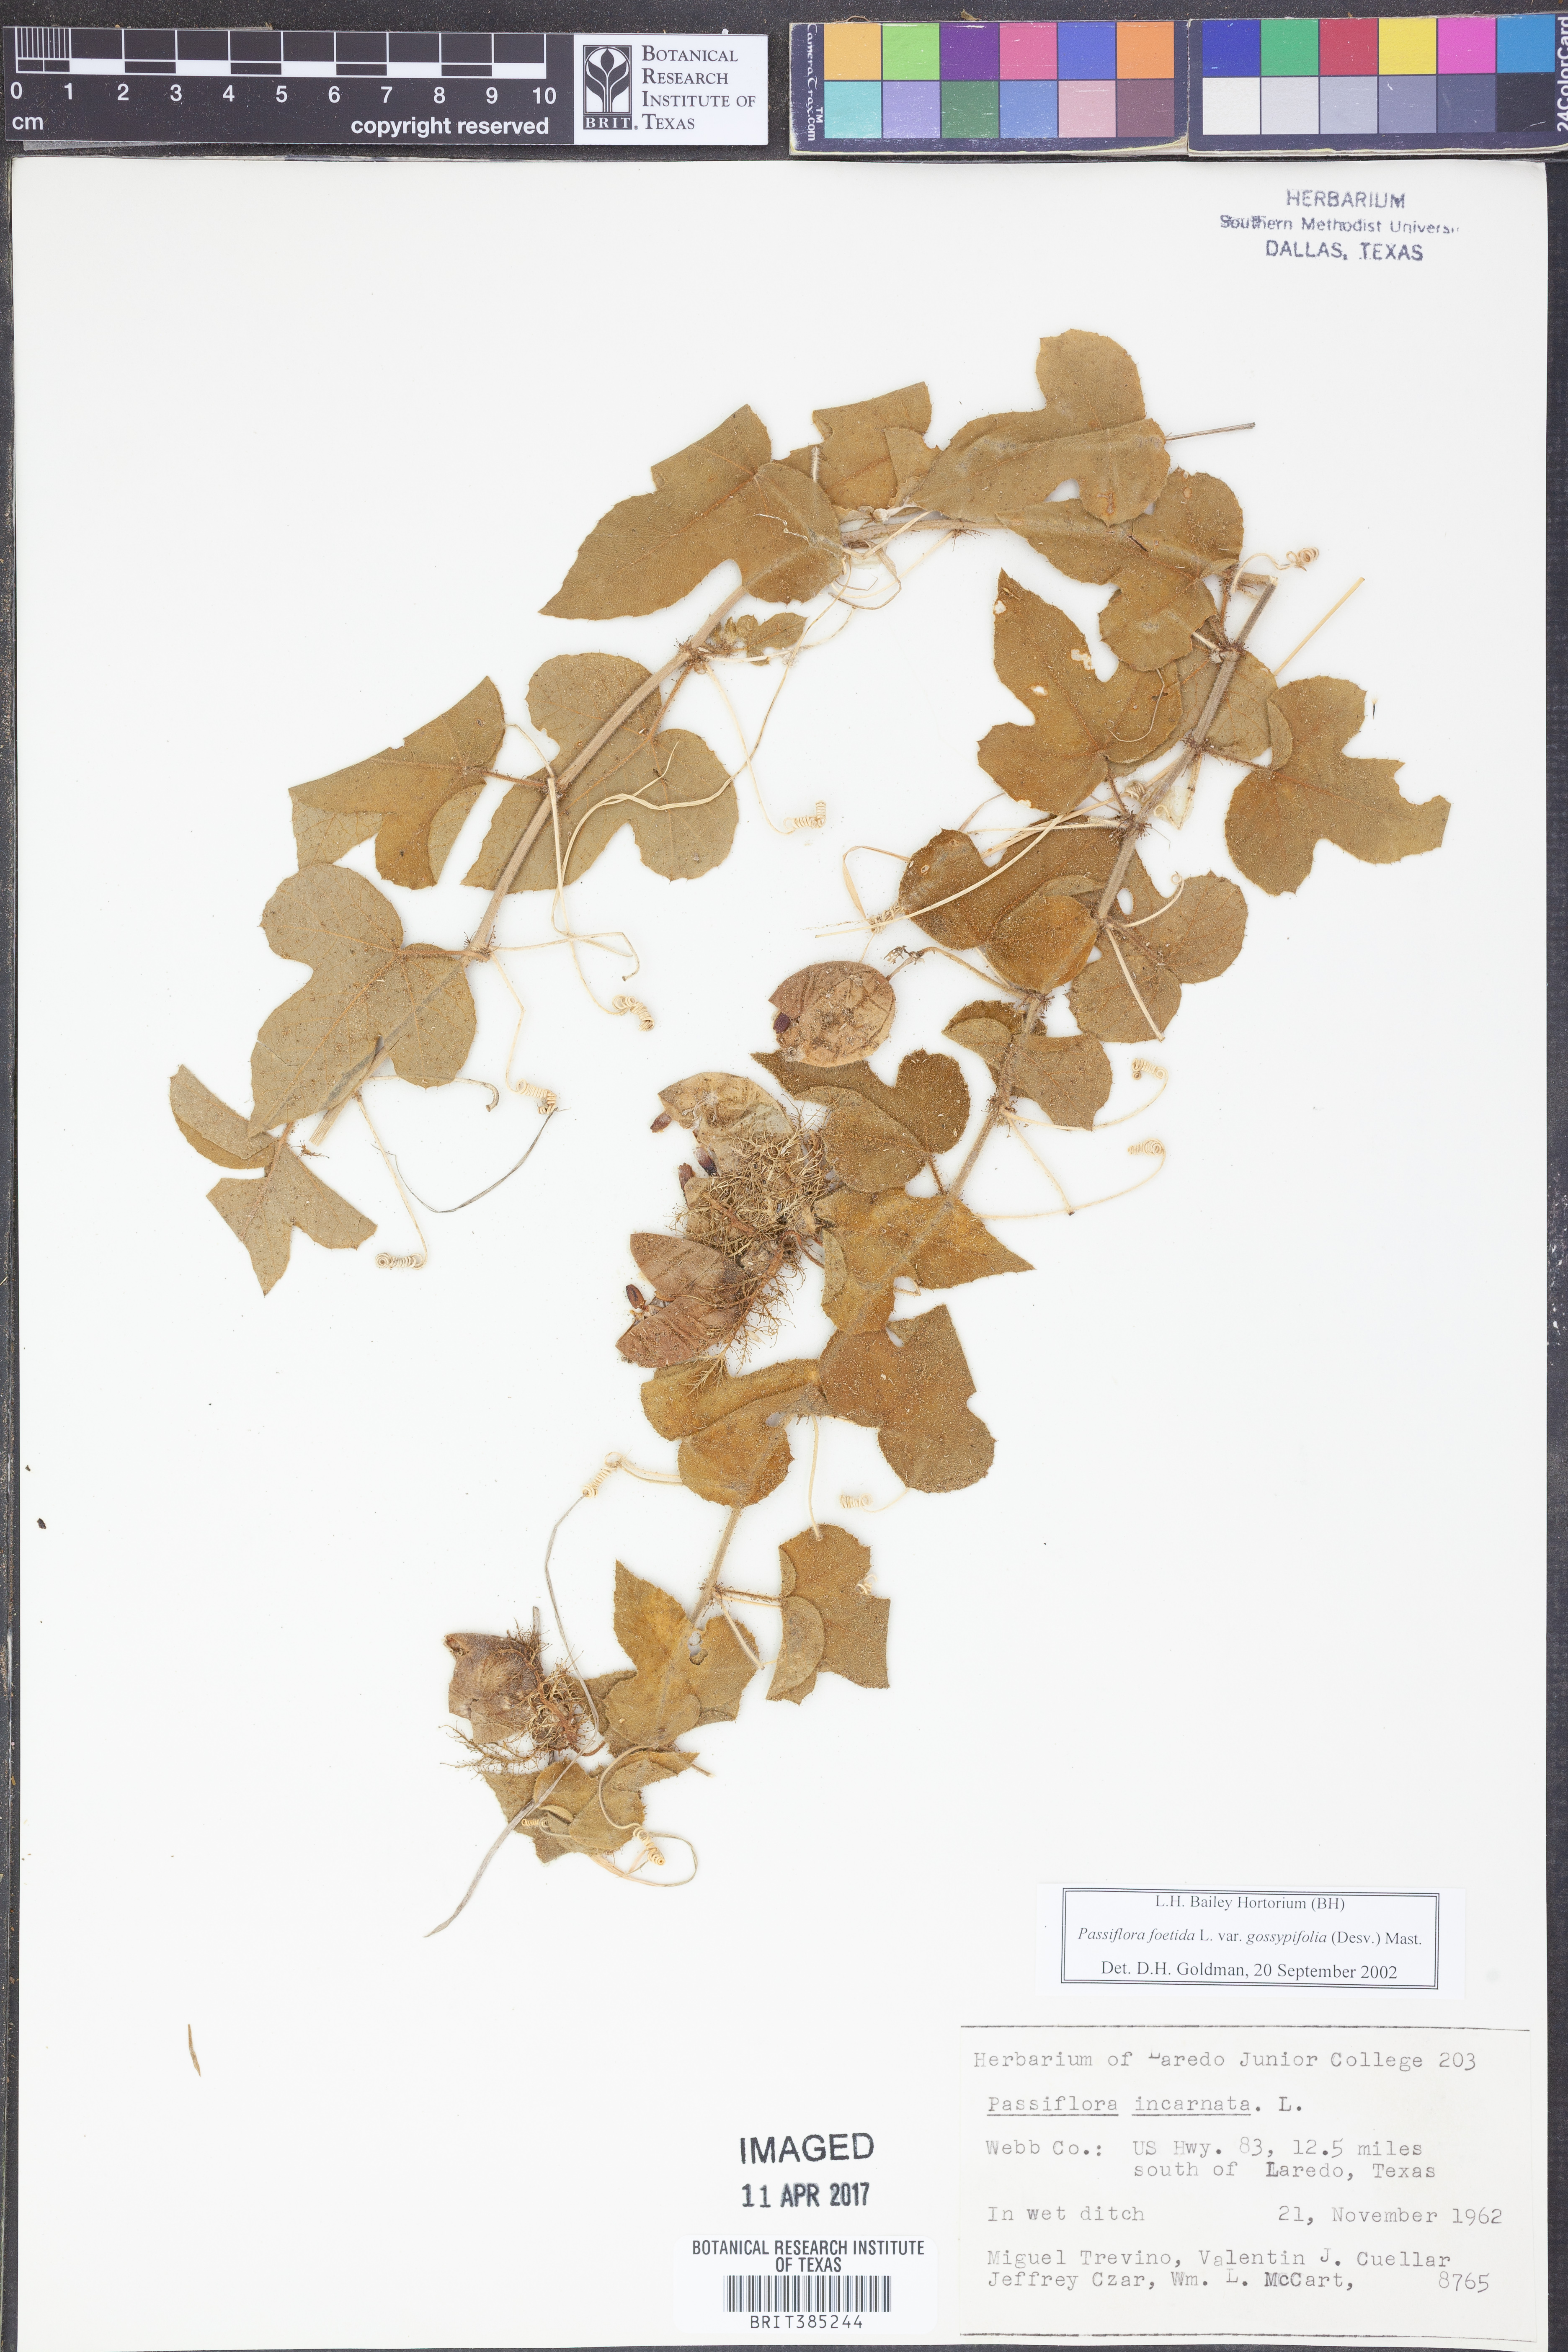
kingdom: Plantae
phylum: Tracheophyta
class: Magnoliopsida
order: Malpighiales
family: Passifloraceae
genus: Passiflora
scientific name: Passiflora foetida
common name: Fetid passionflower
